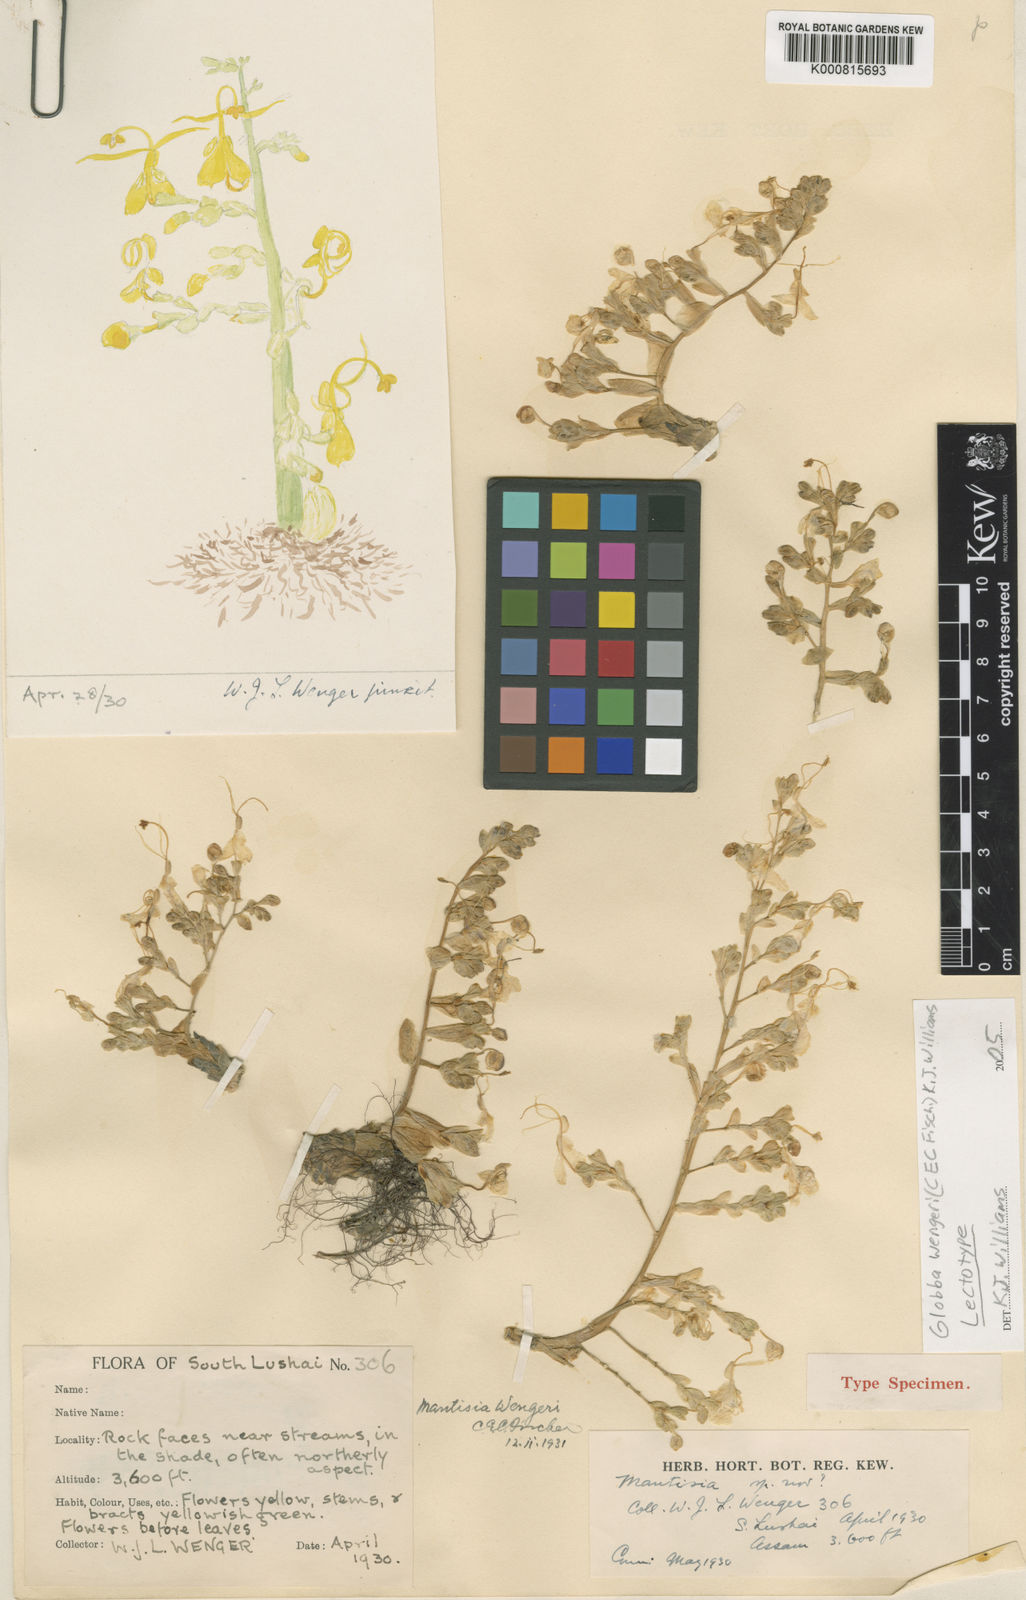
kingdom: Plantae
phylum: Tracheophyta
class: Liliopsida
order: Zingiberales
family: Zingiberaceae
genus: Globba
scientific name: Globba wengeri
